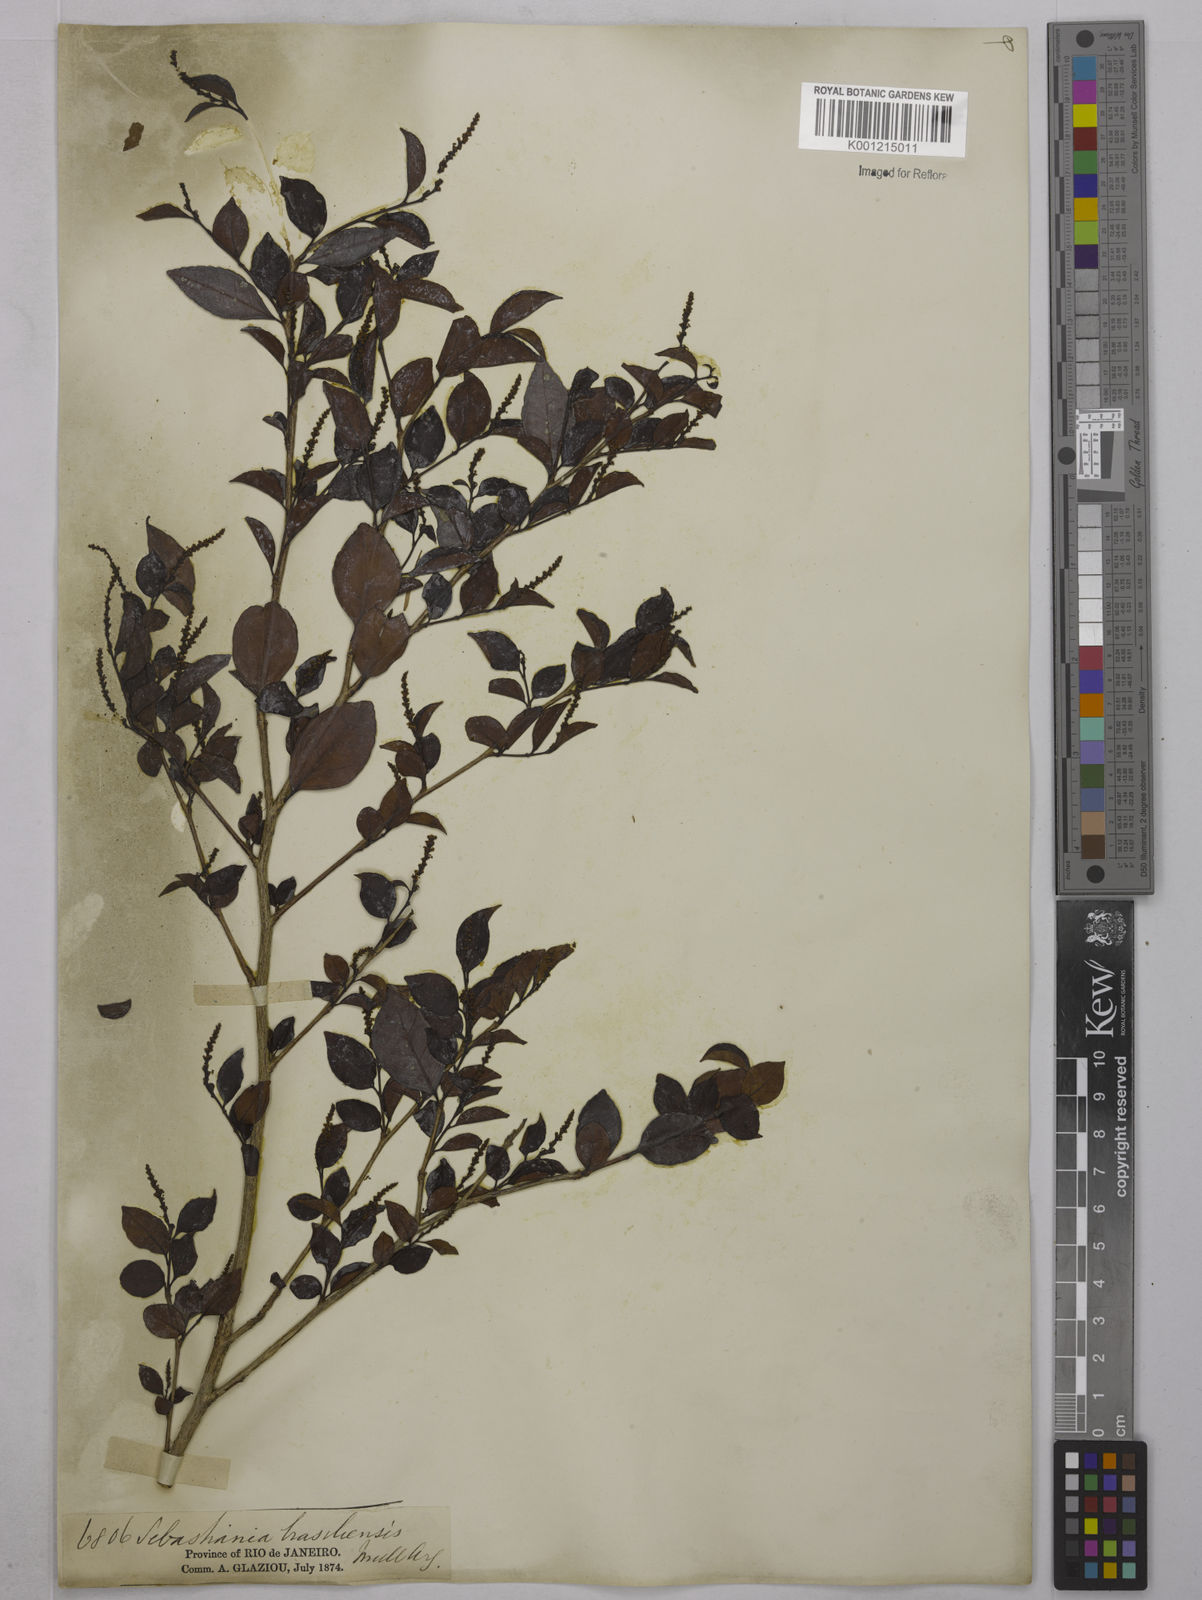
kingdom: Plantae
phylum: Tracheophyta
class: Magnoliopsida
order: Malpighiales
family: Euphorbiaceae
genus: Sebastiania
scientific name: Sebastiania brasiliensis
